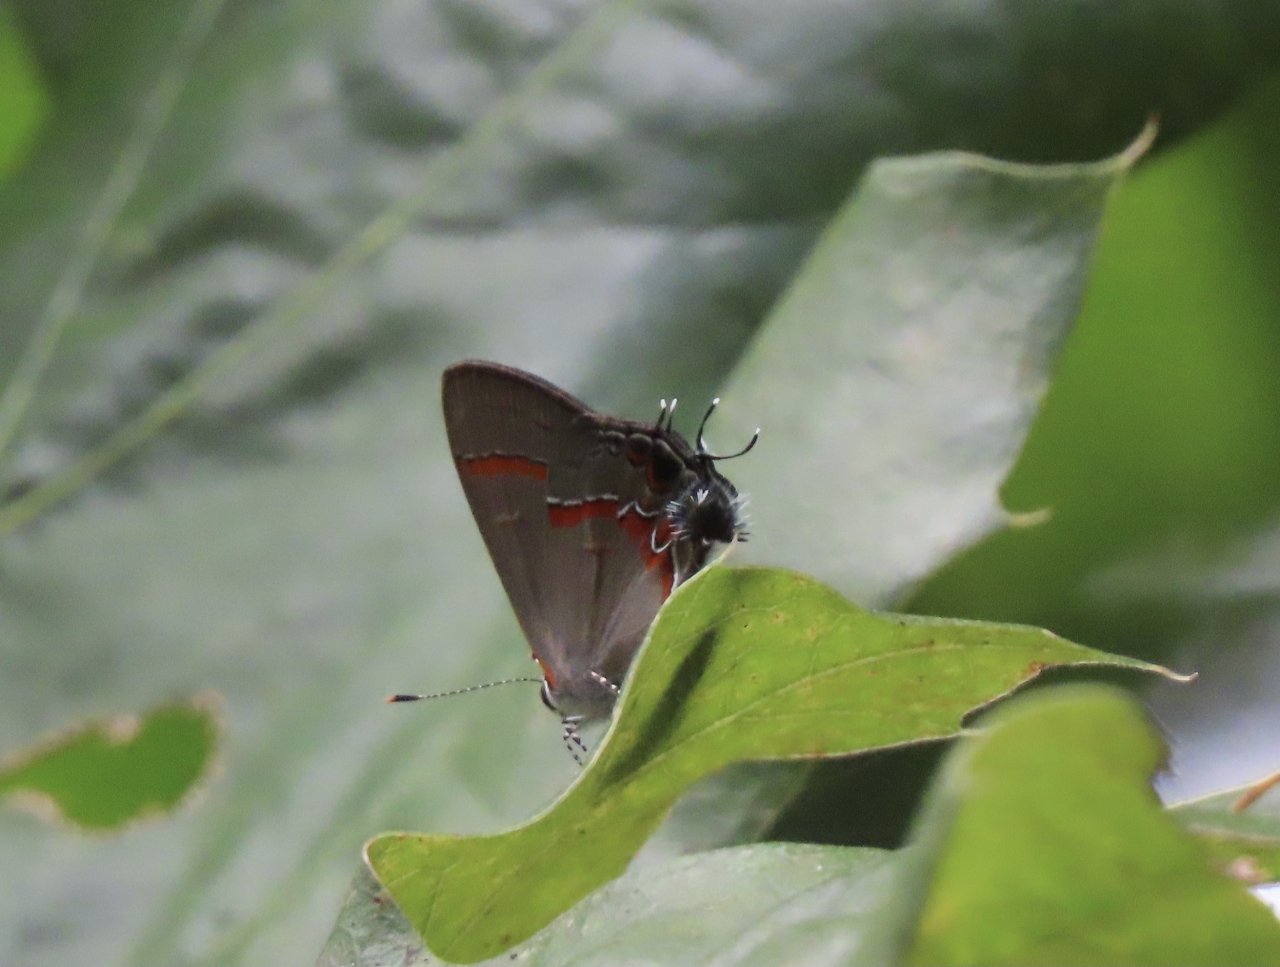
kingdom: Animalia
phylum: Arthropoda
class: Insecta
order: Lepidoptera
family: Lycaenidae
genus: Calycopis
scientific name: Calycopis cecrops
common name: Red-banded Hairstreak
